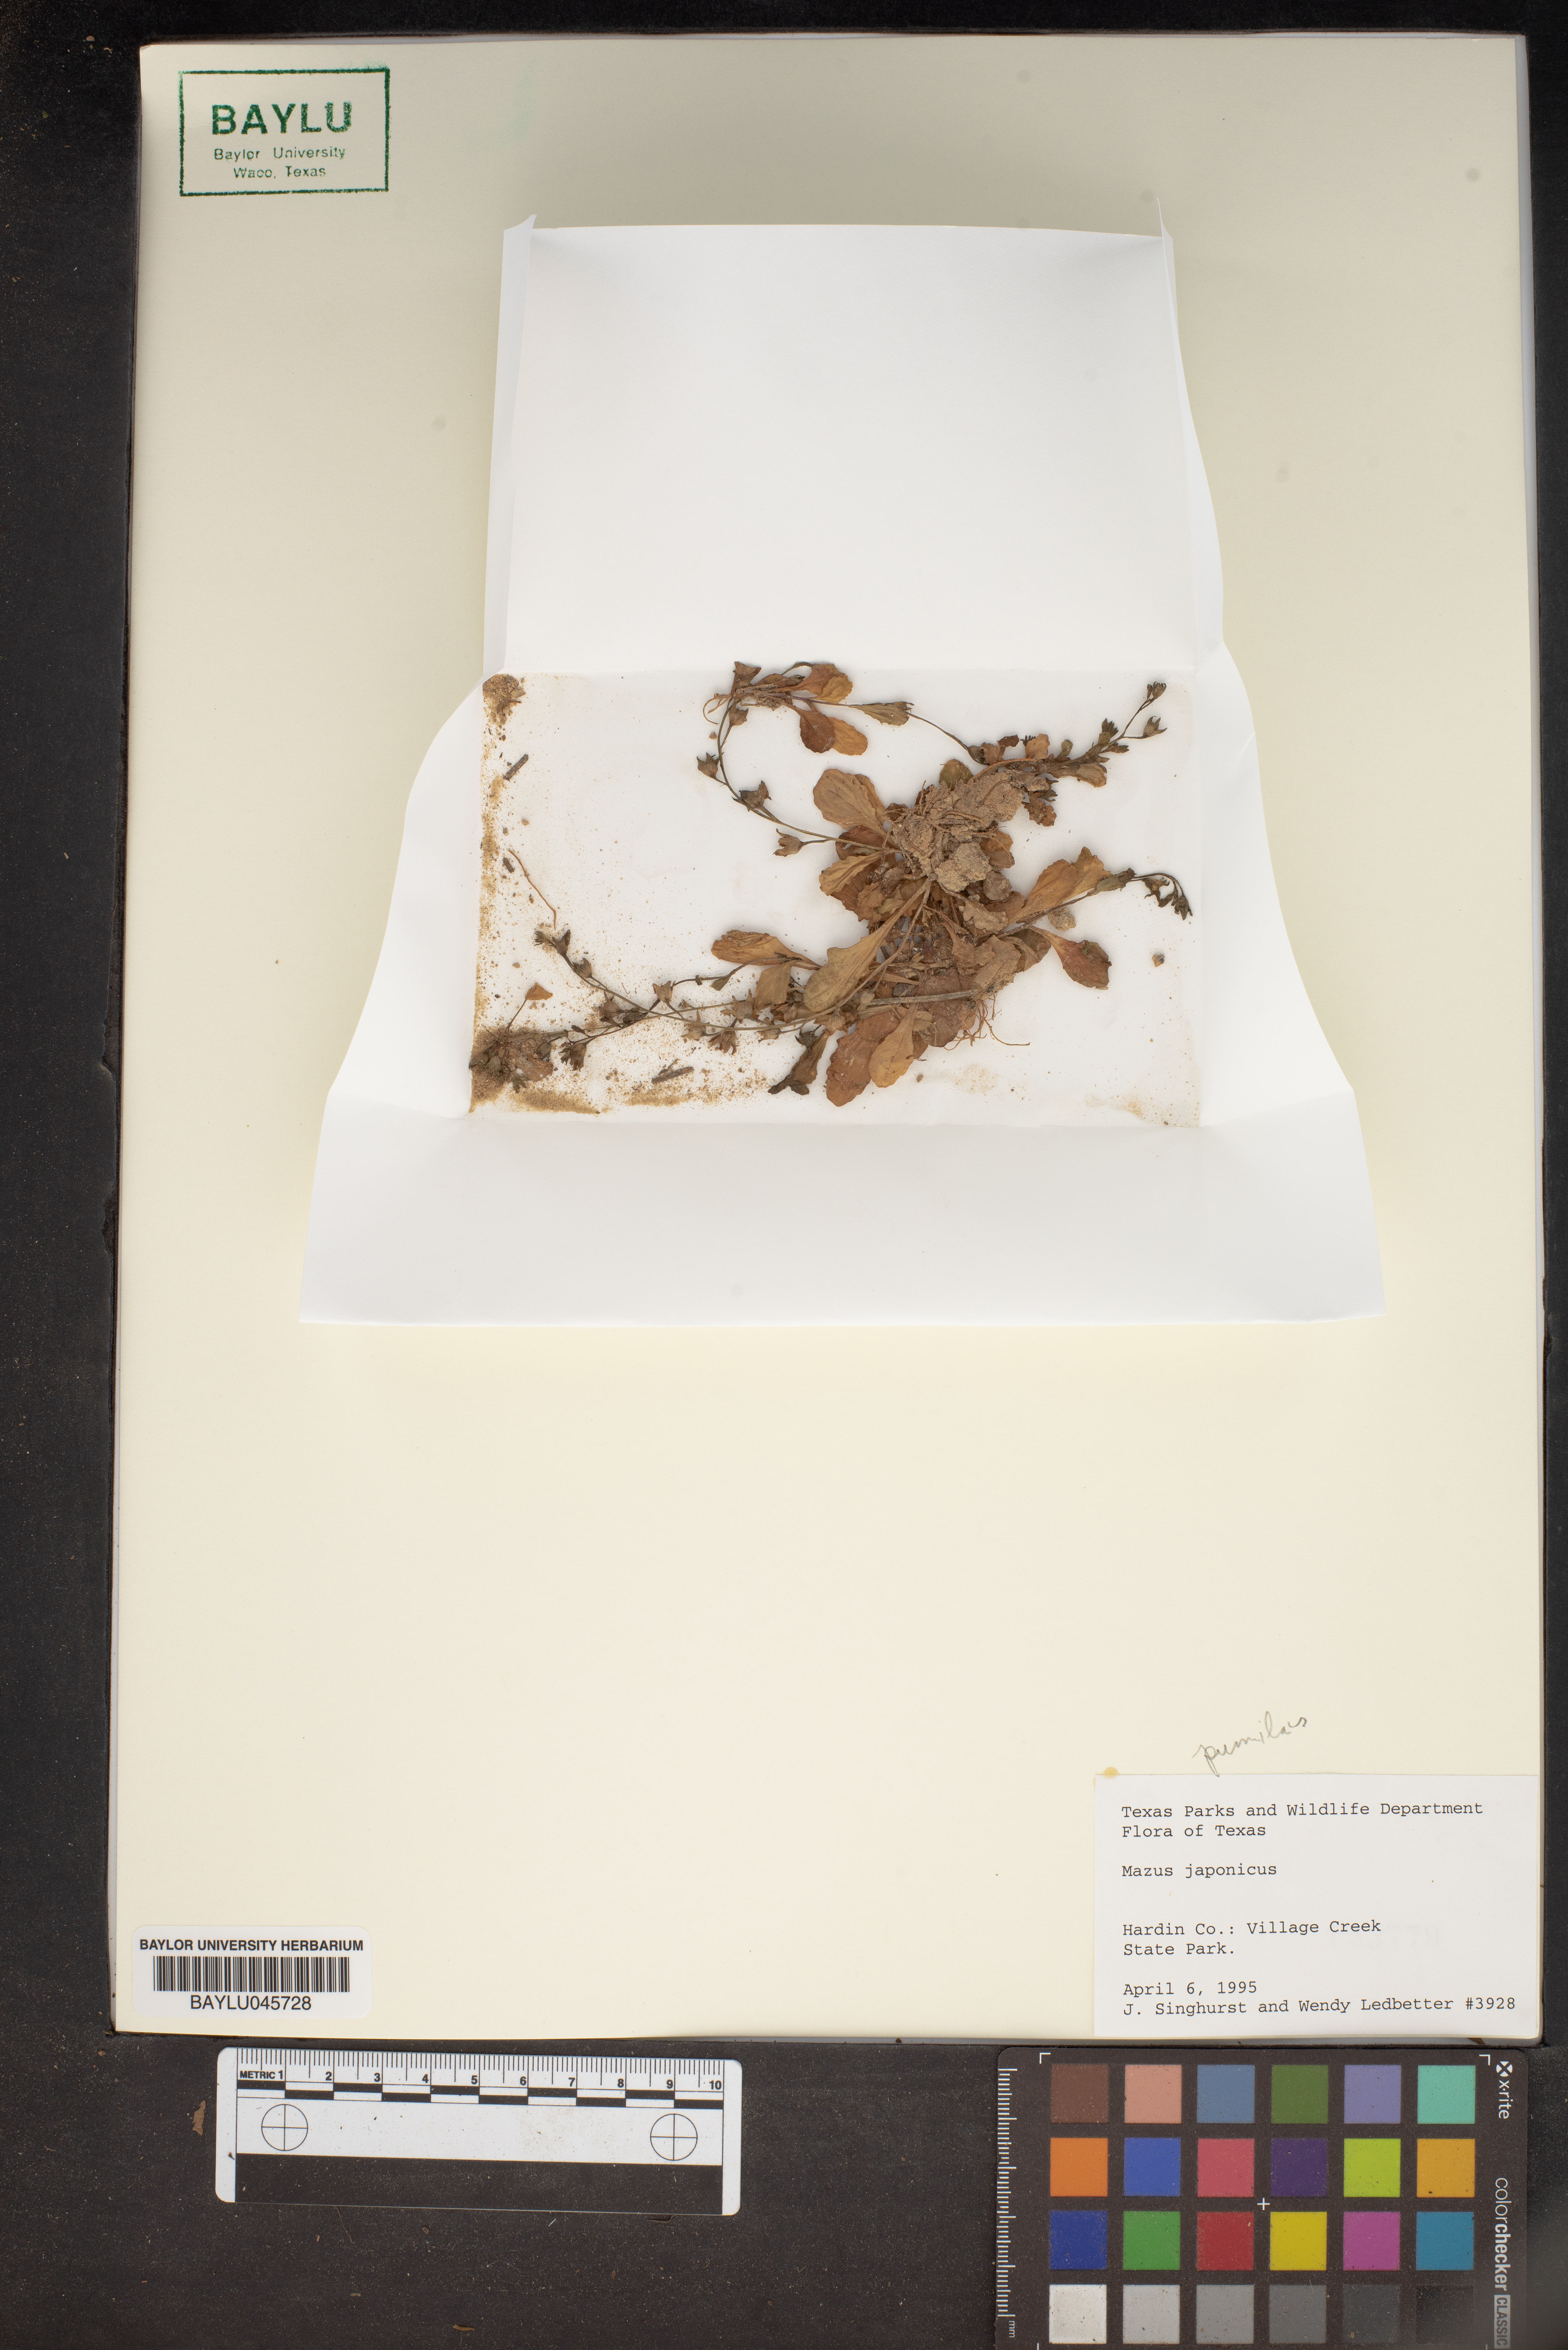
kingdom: Plantae
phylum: Tracheophyta
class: Magnoliopsida
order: Lamiales
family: Mazaceae
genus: Mazus
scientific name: Mazus pumilus
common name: Japanese mazus
